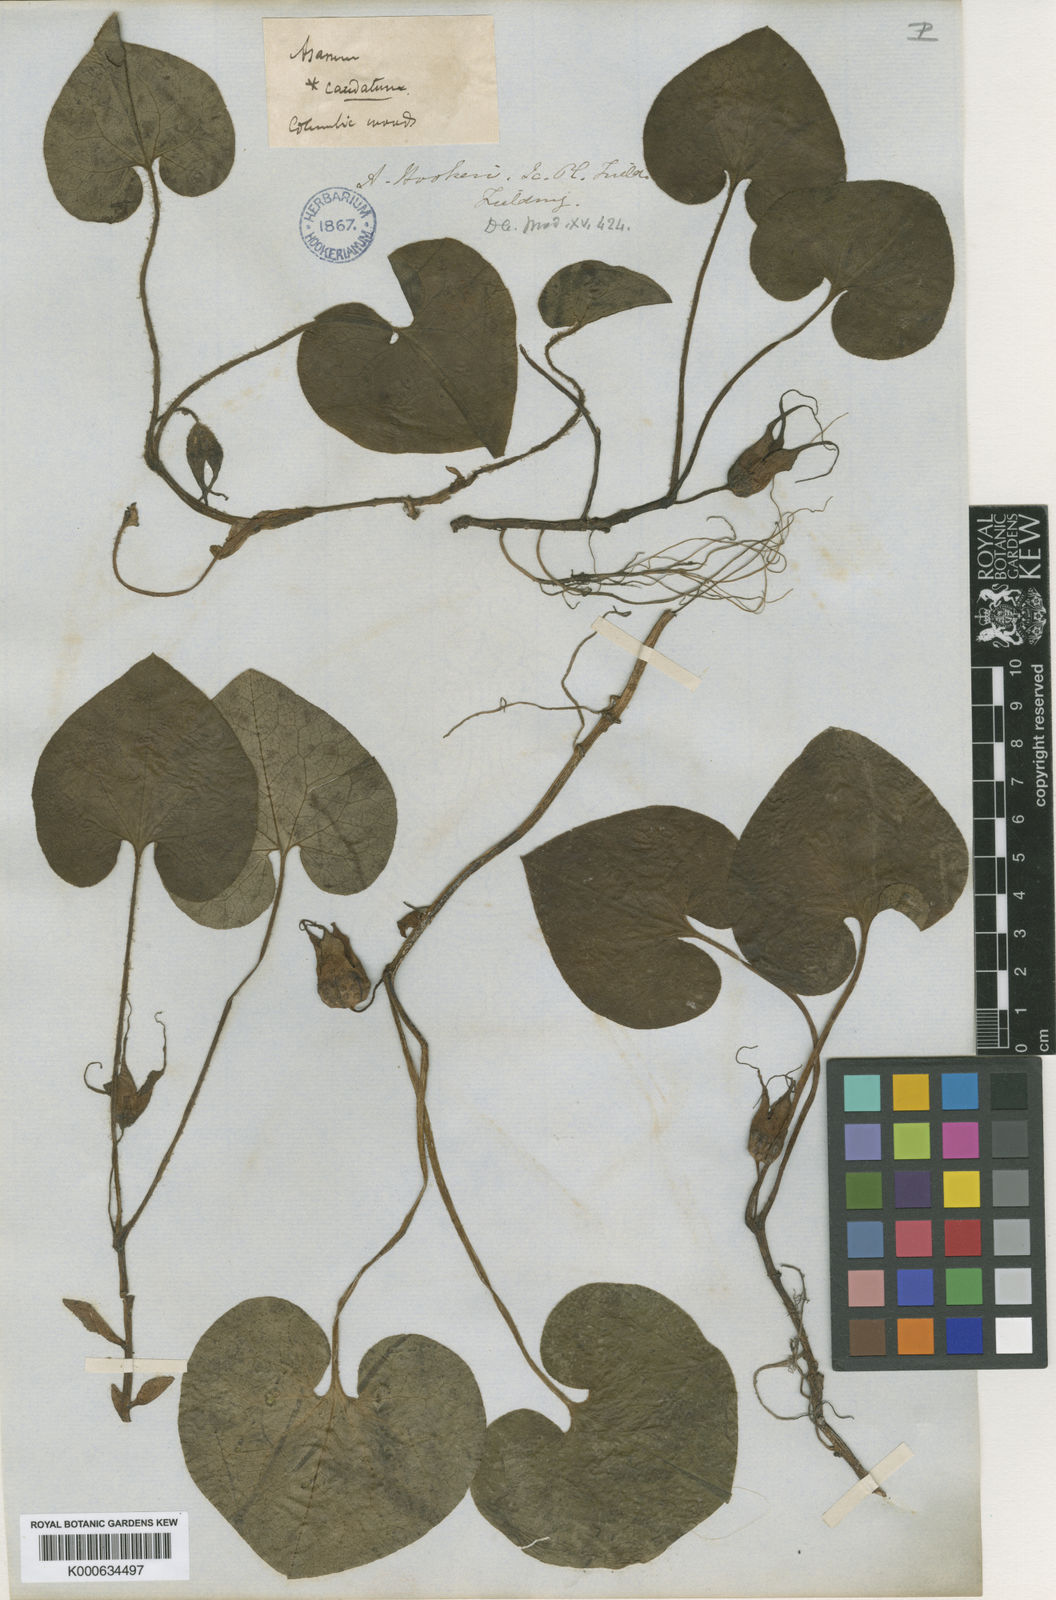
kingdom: Plantae
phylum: Tracheophyta
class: Magnoliopsida
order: Piperales
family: Aristolochiaceae
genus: Asarum
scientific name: Asarum caudatum
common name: Wild ginger
